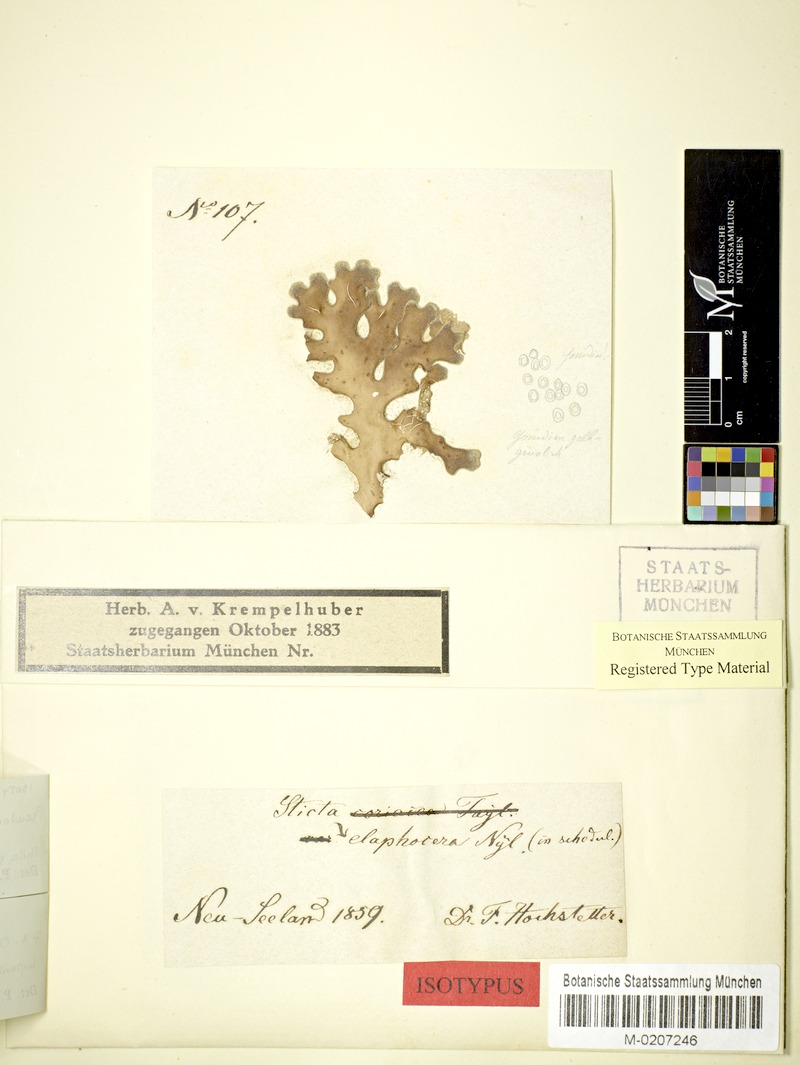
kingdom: Fungi
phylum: Ascomycota
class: Lecanoromycetes
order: Peltigerales
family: Lobariaceae
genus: Pseudocyphellaria
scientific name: Pseudocyphellaria coriacea
